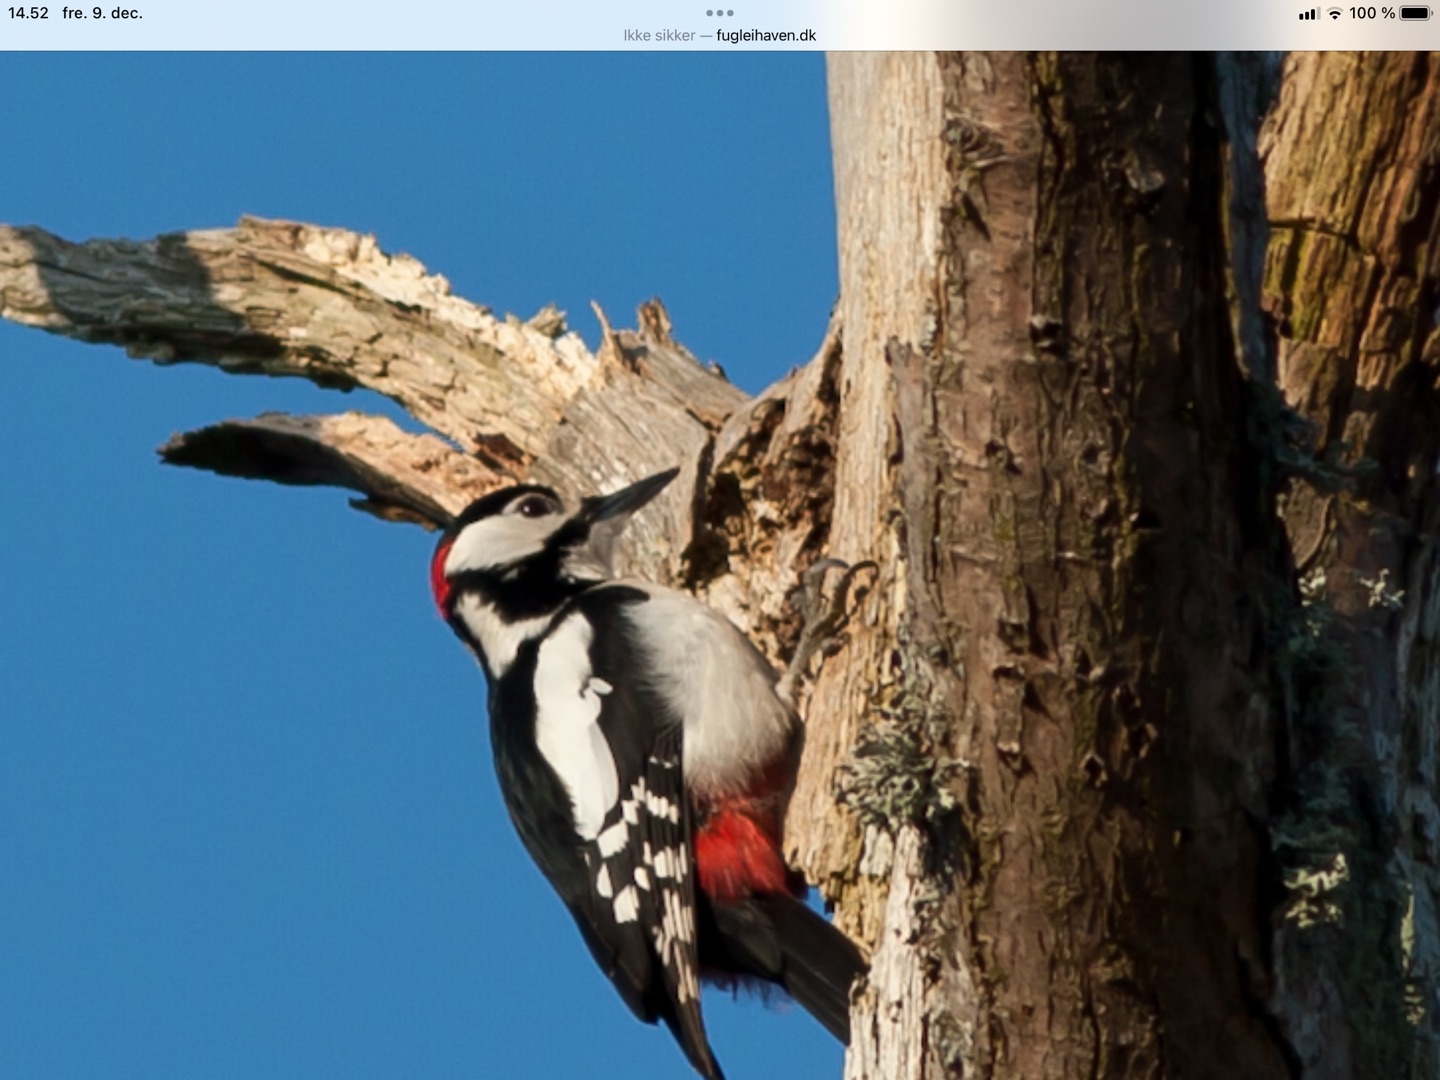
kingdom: Animalia
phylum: Chordata
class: Aves
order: Piciformes
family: Picidae
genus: Dendrocopos
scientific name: Dendrocopos major
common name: Stor flagspætte
